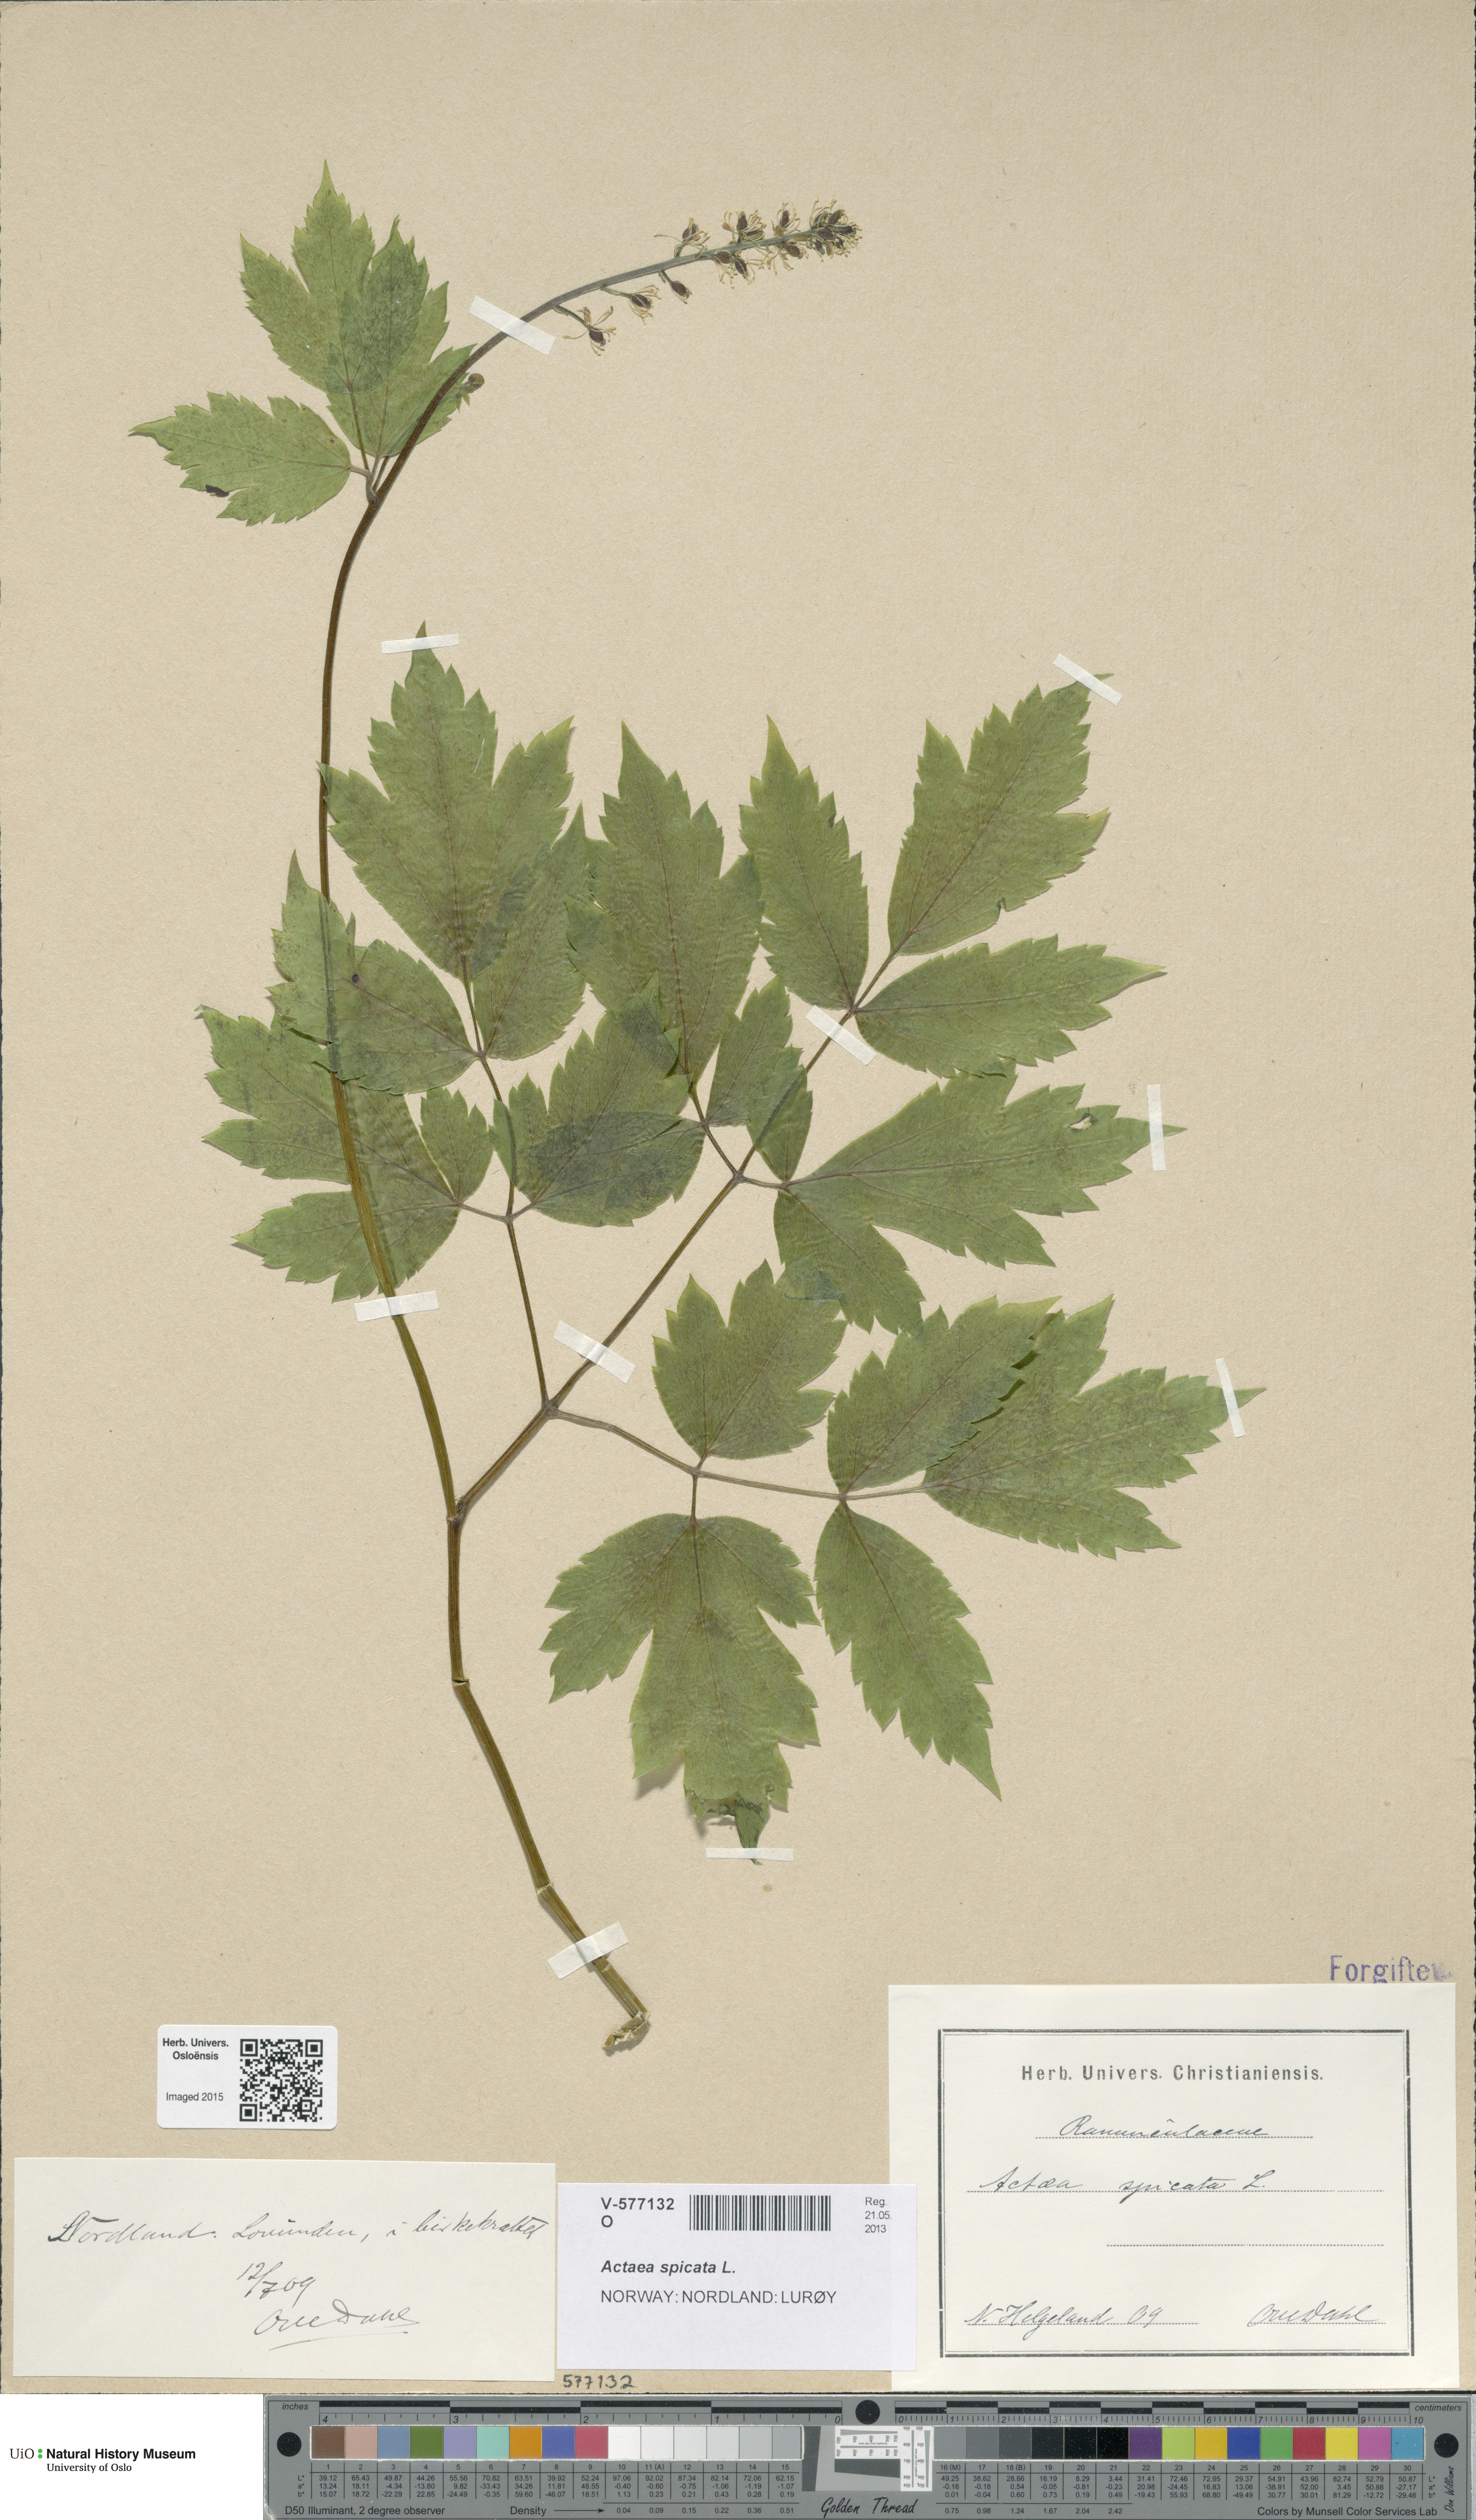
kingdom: Plantae
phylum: Tracheophyta
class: Magnoliopsida
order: Ranunculales
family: Ranunculaceae
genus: Actaea
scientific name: Actaea spicata
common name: Baneberry
